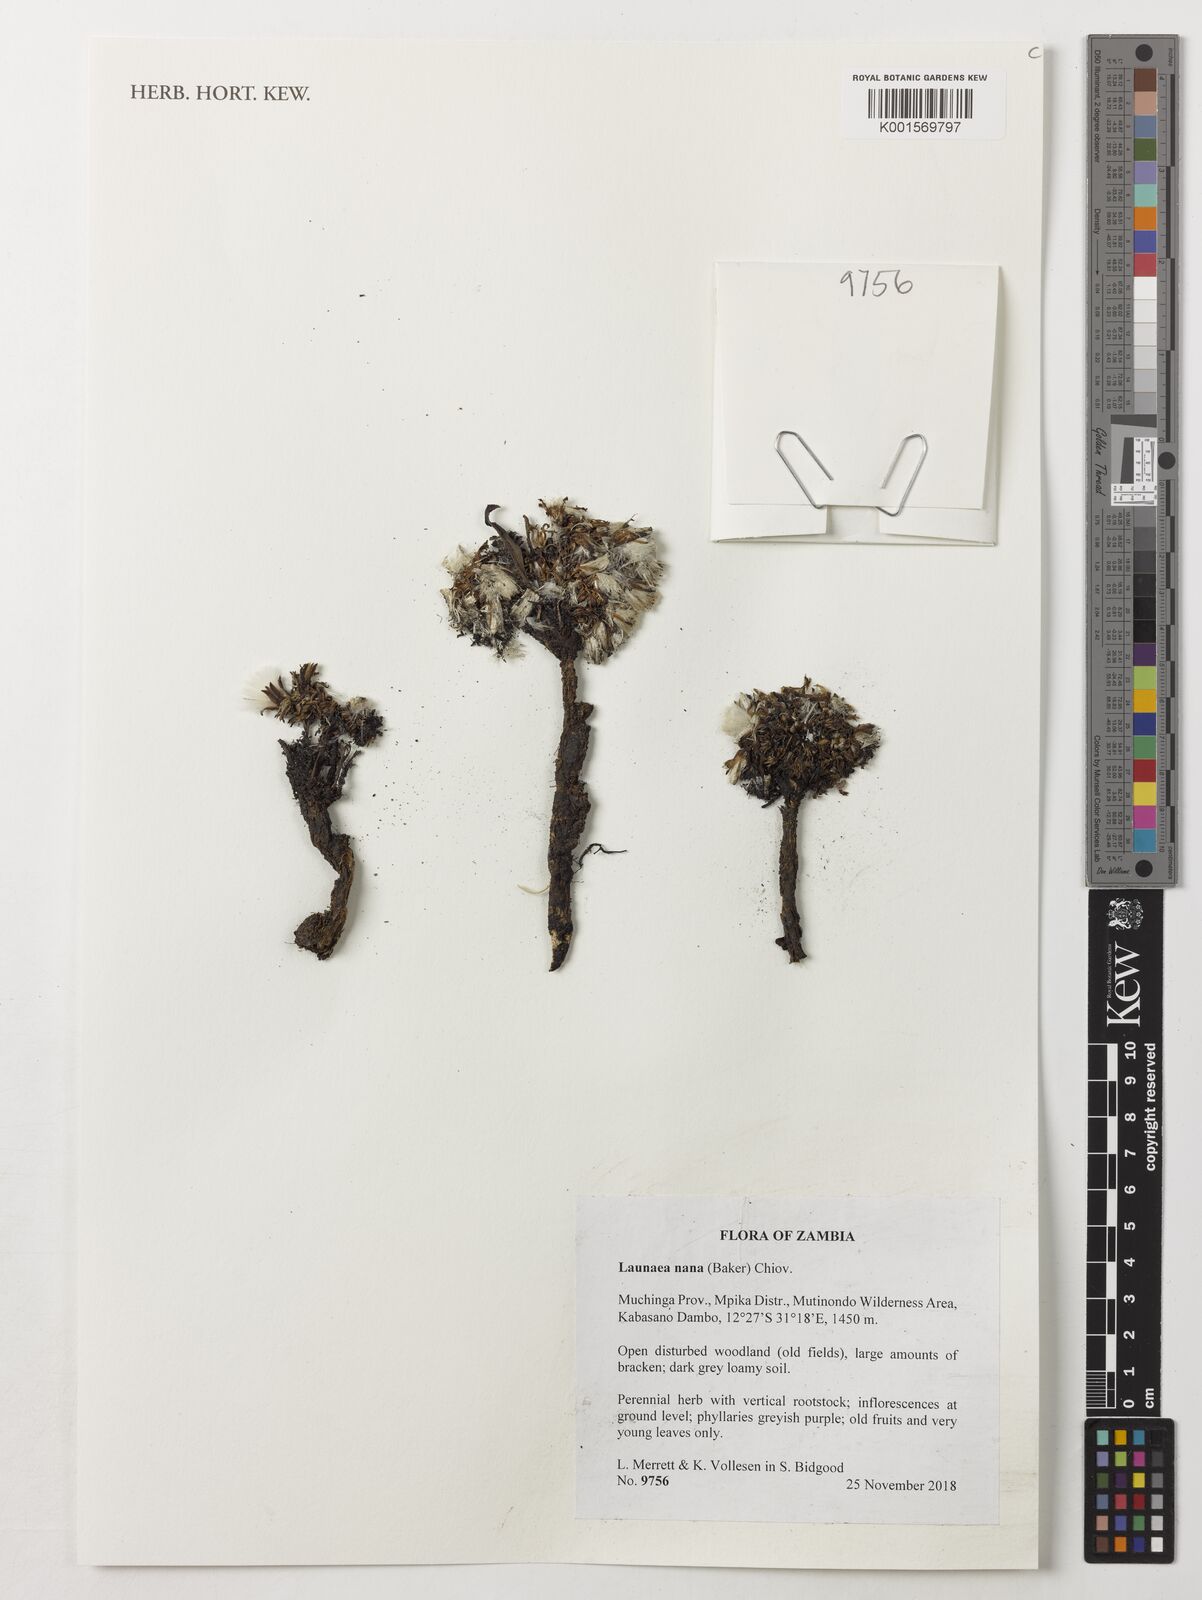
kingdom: Plantae
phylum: Tracheophyta
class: Magnoliopsida
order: Asterales
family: Asteraceae
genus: Launaea
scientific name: Launaea nana
